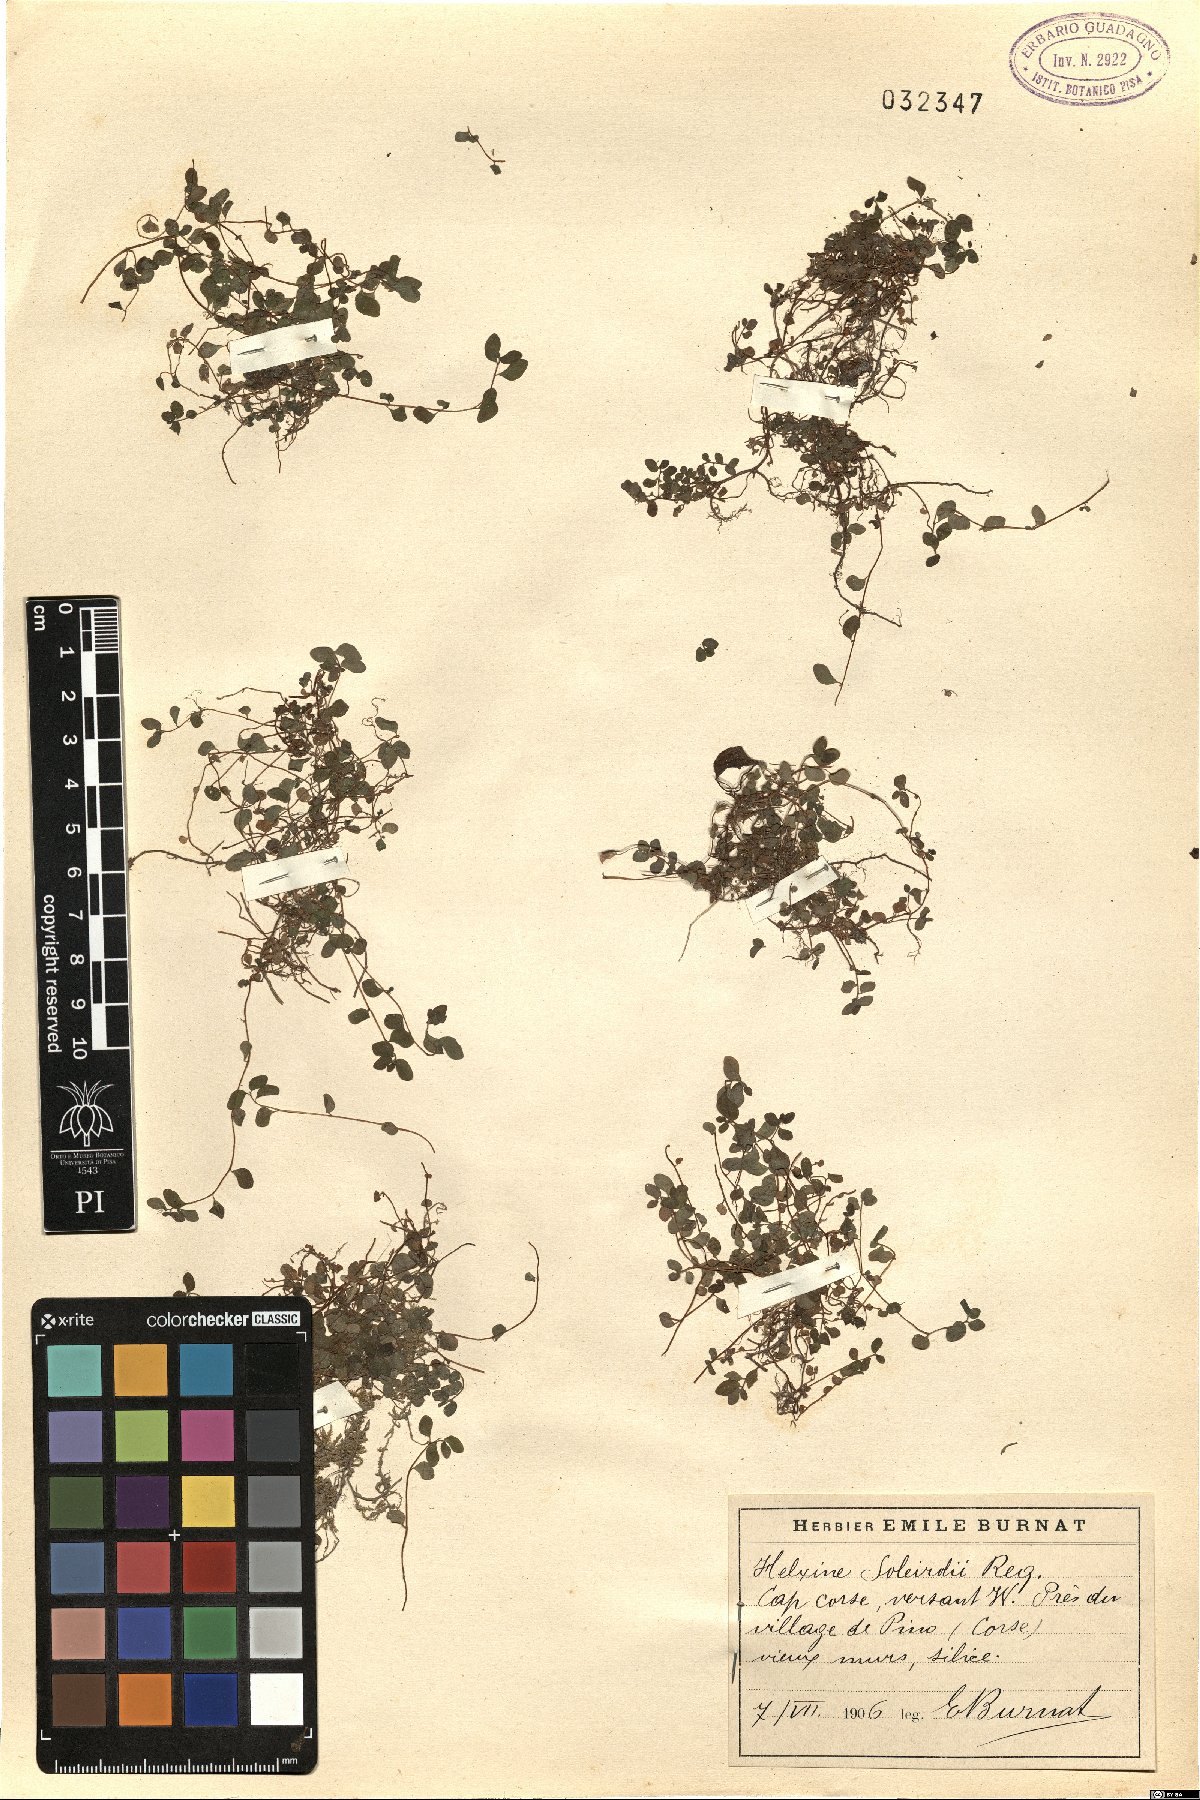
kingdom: Plantae
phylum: Tracheophyta
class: Magnoliopsida
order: Rosales
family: Urticaceae
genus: Soleirolia
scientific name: Soleirolia soleirolii
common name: Mind-your-own-business
